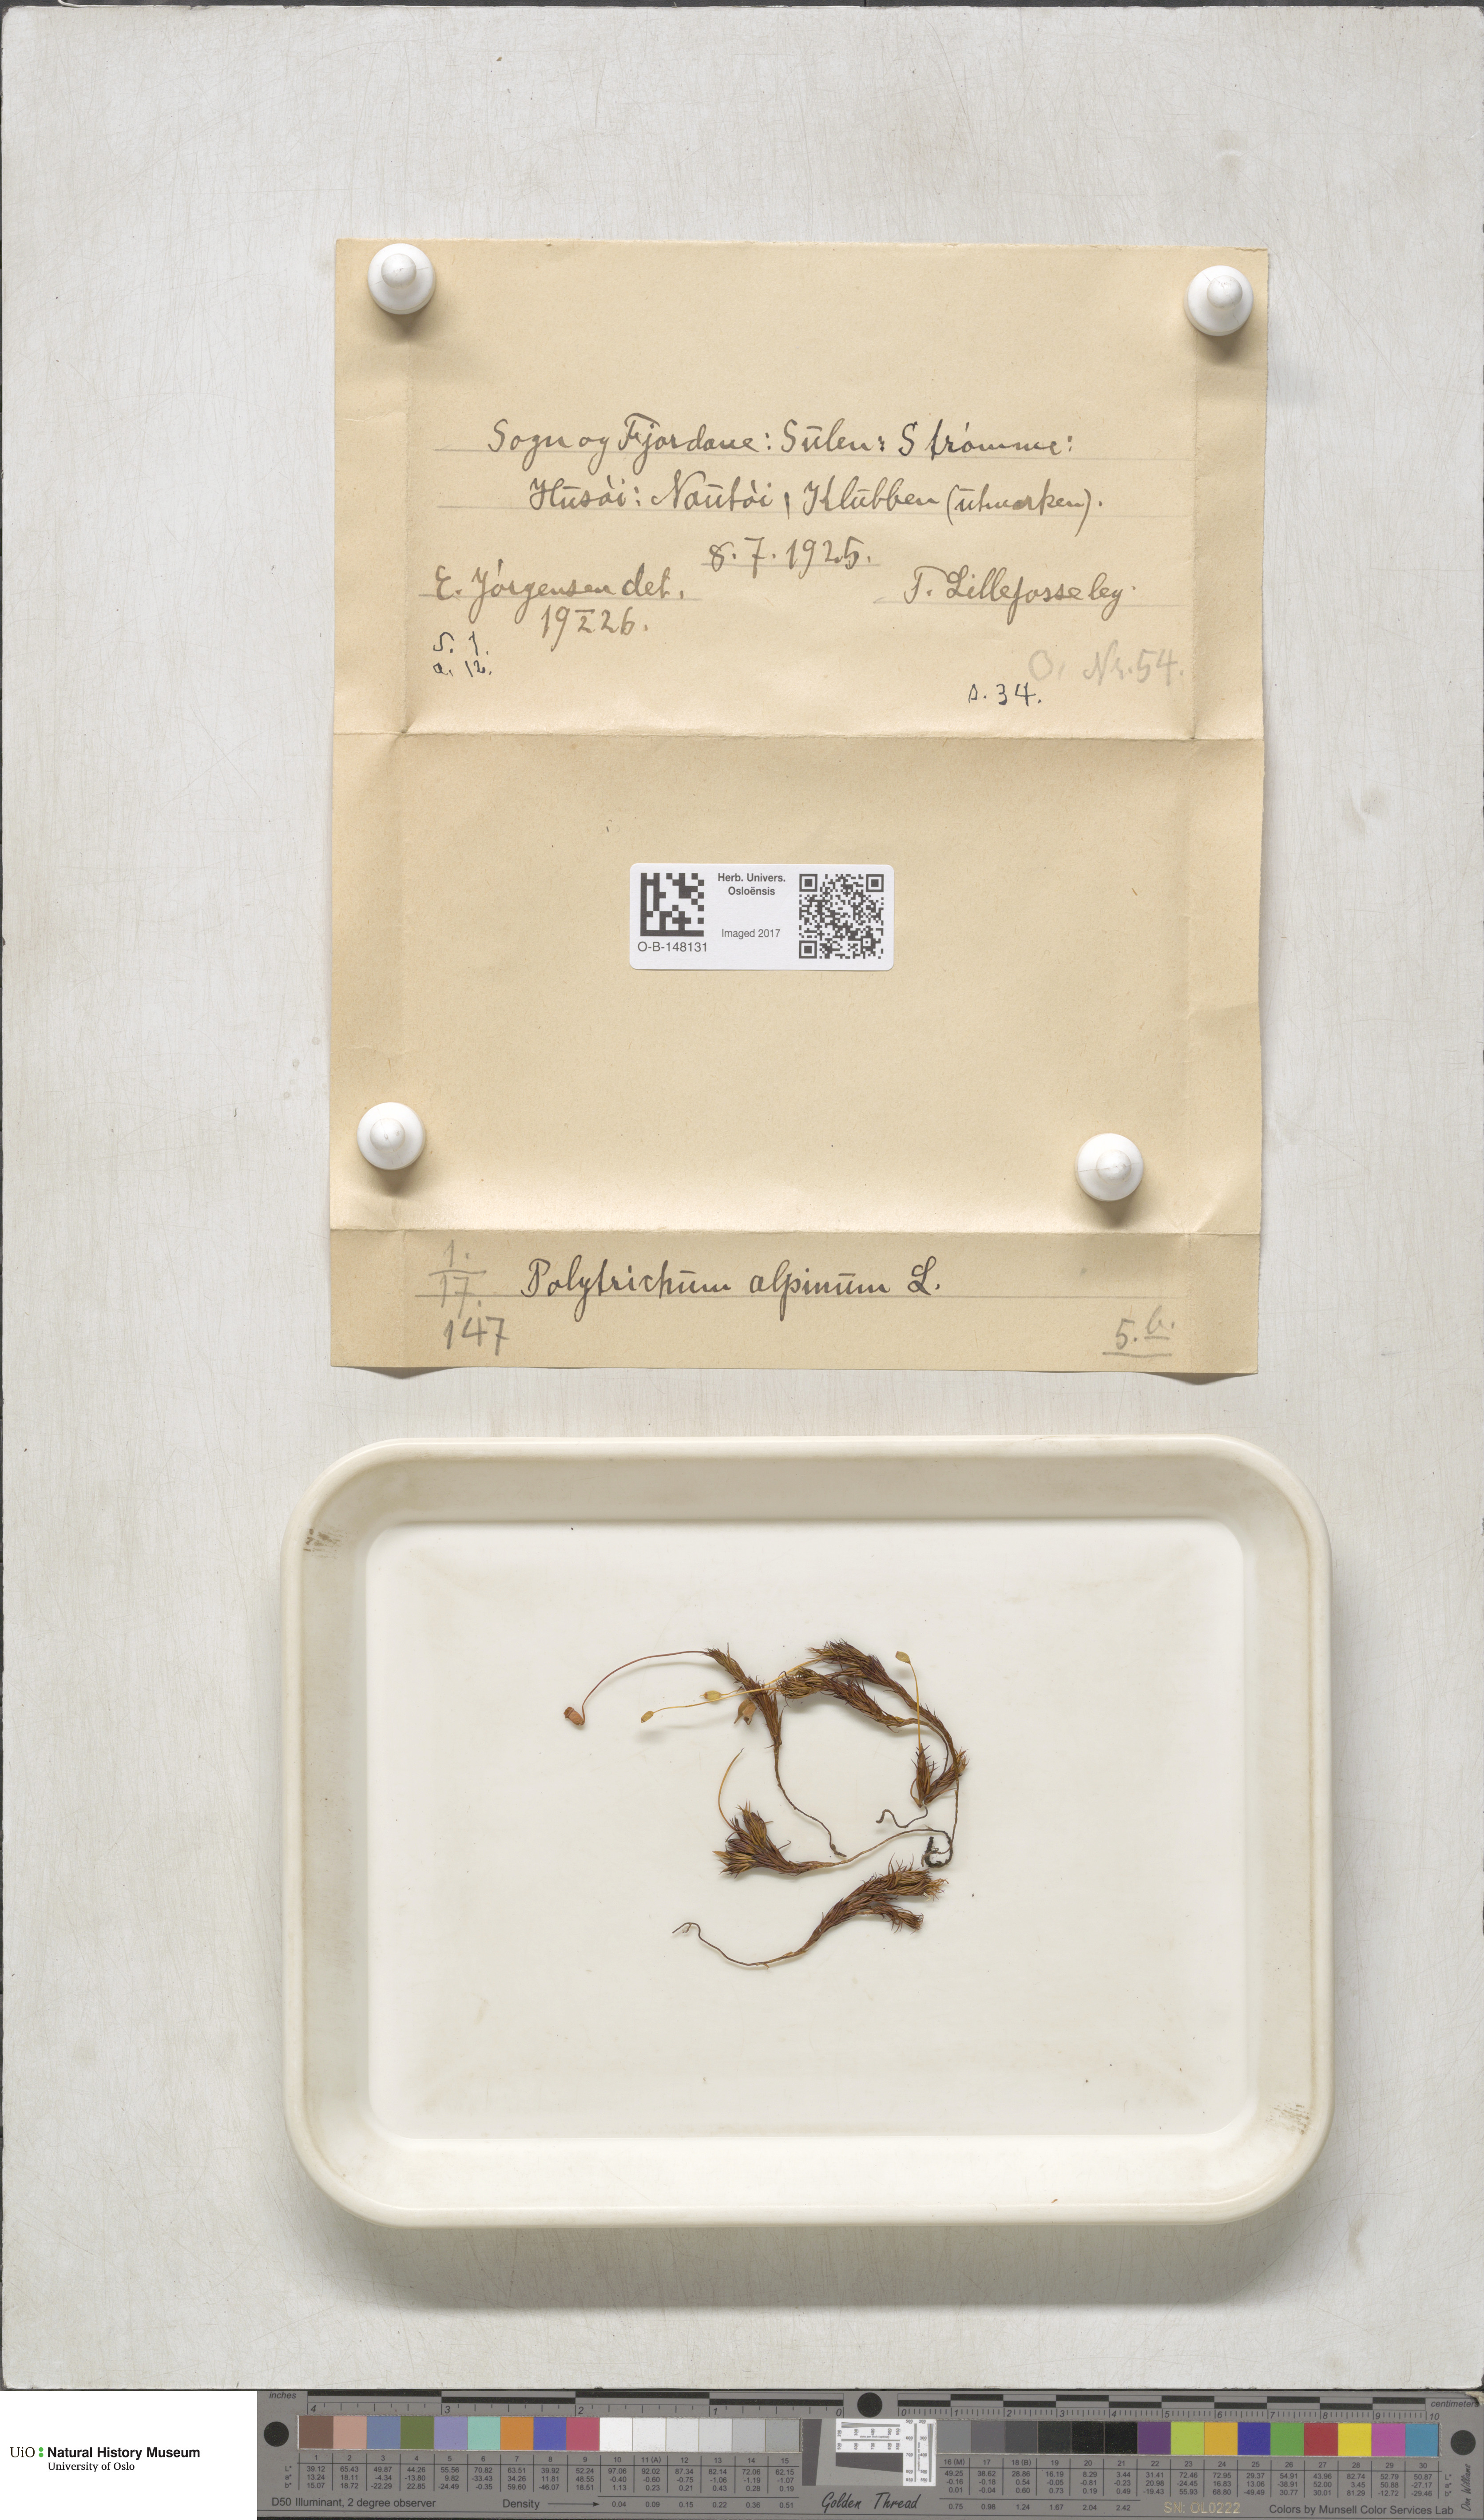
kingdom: Plantae
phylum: Bryophyta
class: Polytrichopsida
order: Polytrichales
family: Polytrichaceae
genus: Polytrichastrum
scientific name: Polytrichastrum alpinum
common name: Alpine haircap
